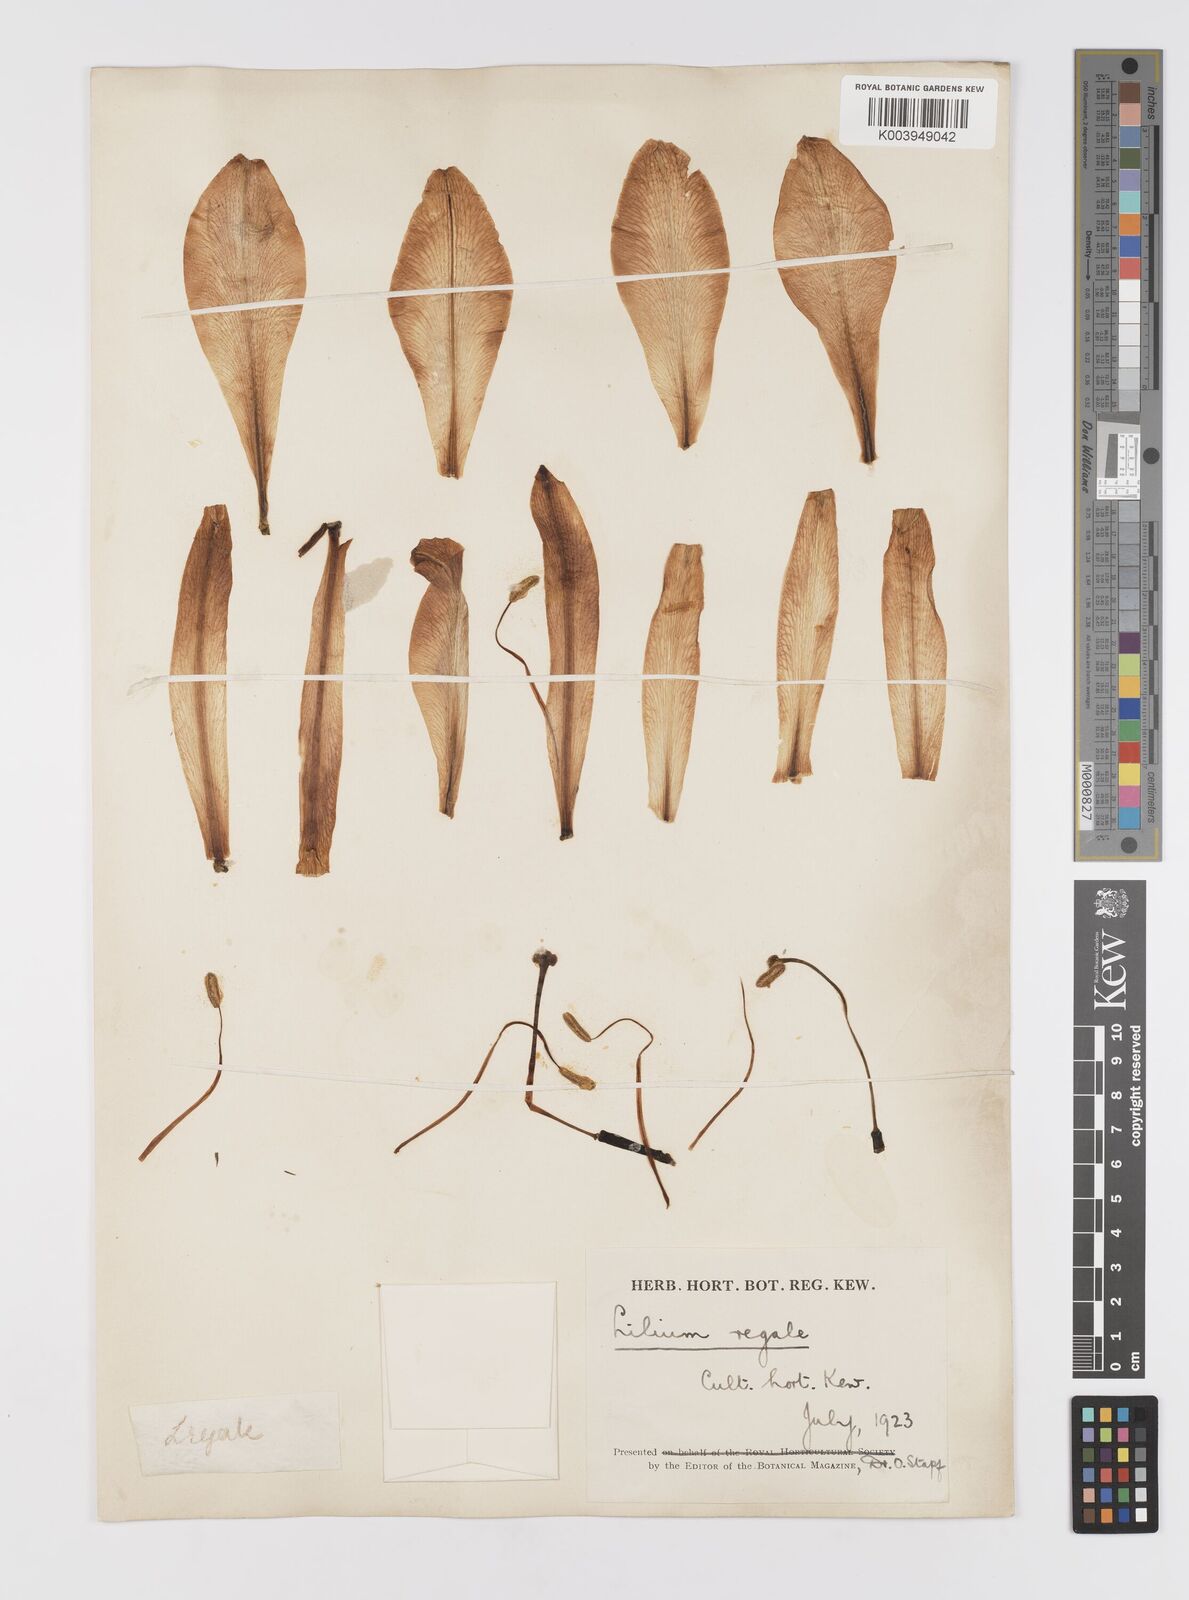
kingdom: Plantae
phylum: Tracheophyta
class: Liliopsida
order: Liliales
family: Liliaceae
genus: Lilium
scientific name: Lilium regale
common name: Regal lily
